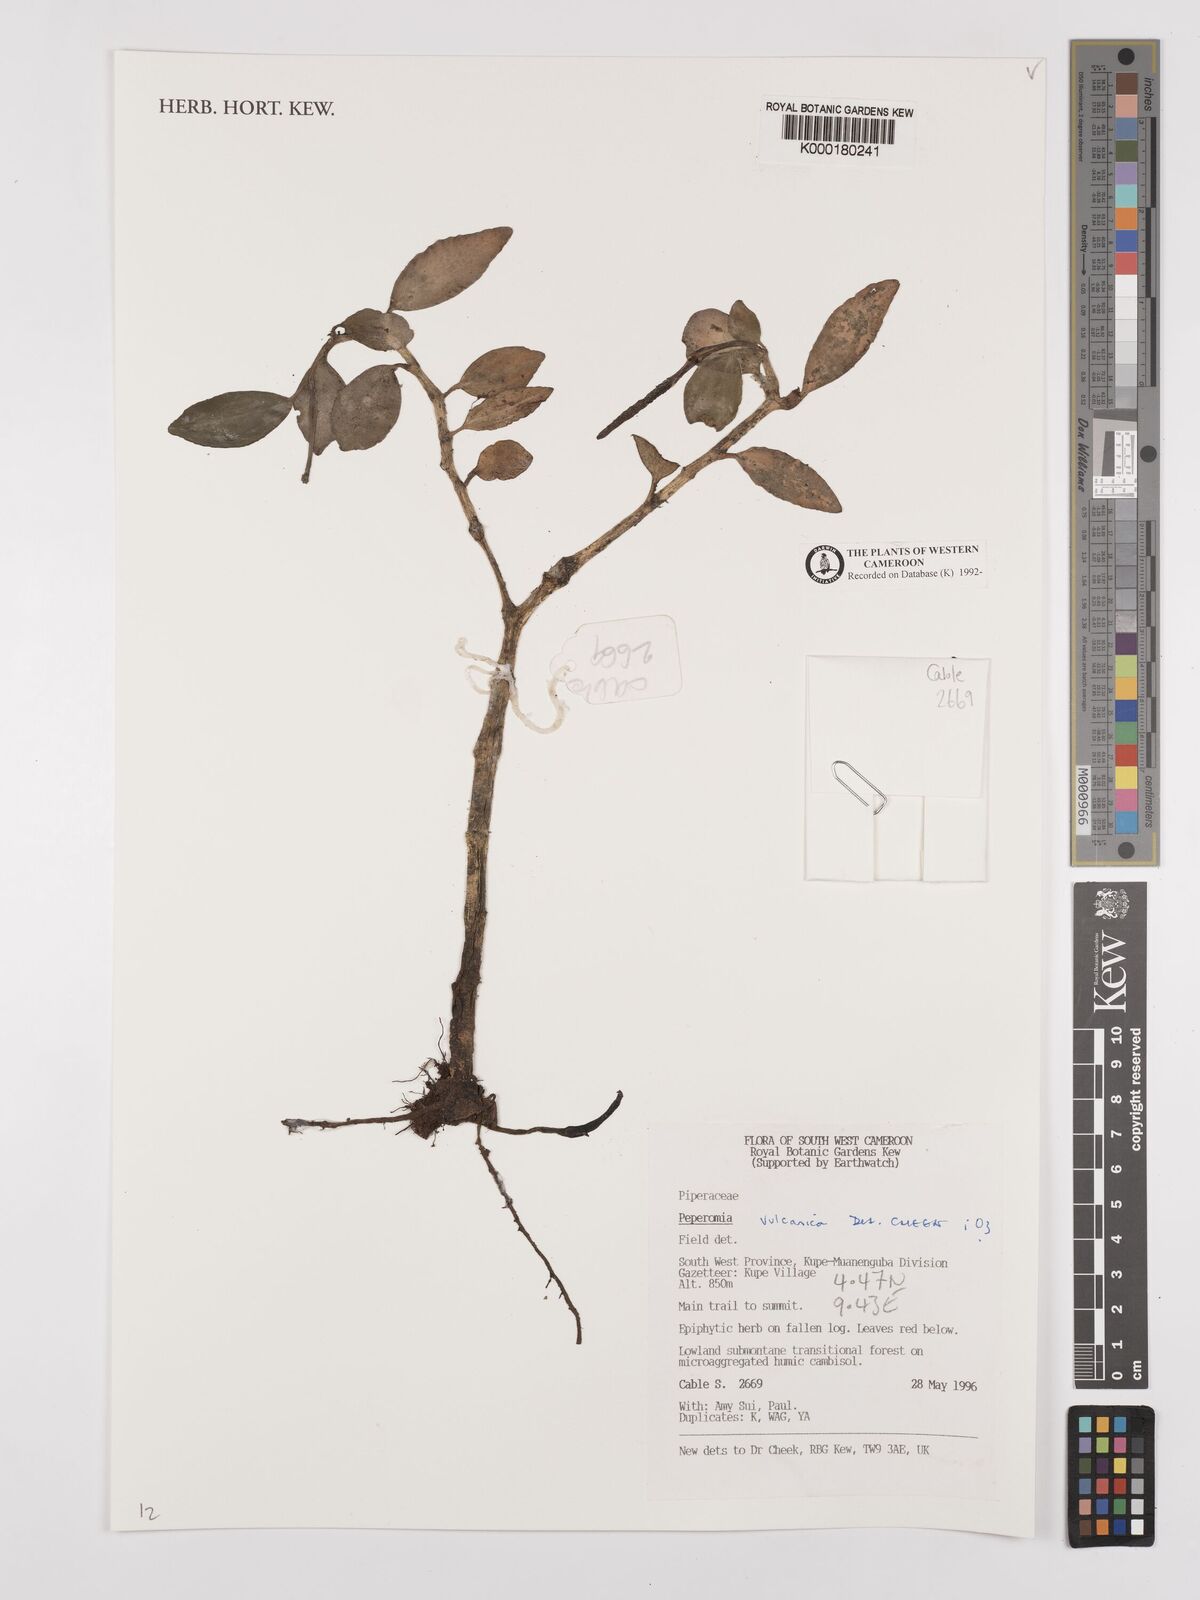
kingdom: Plantae
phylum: Tracheophyta
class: Magnoliopsida
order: Piperales
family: Piperaceae
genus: Peperomia
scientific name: Peperomia vulcanica
